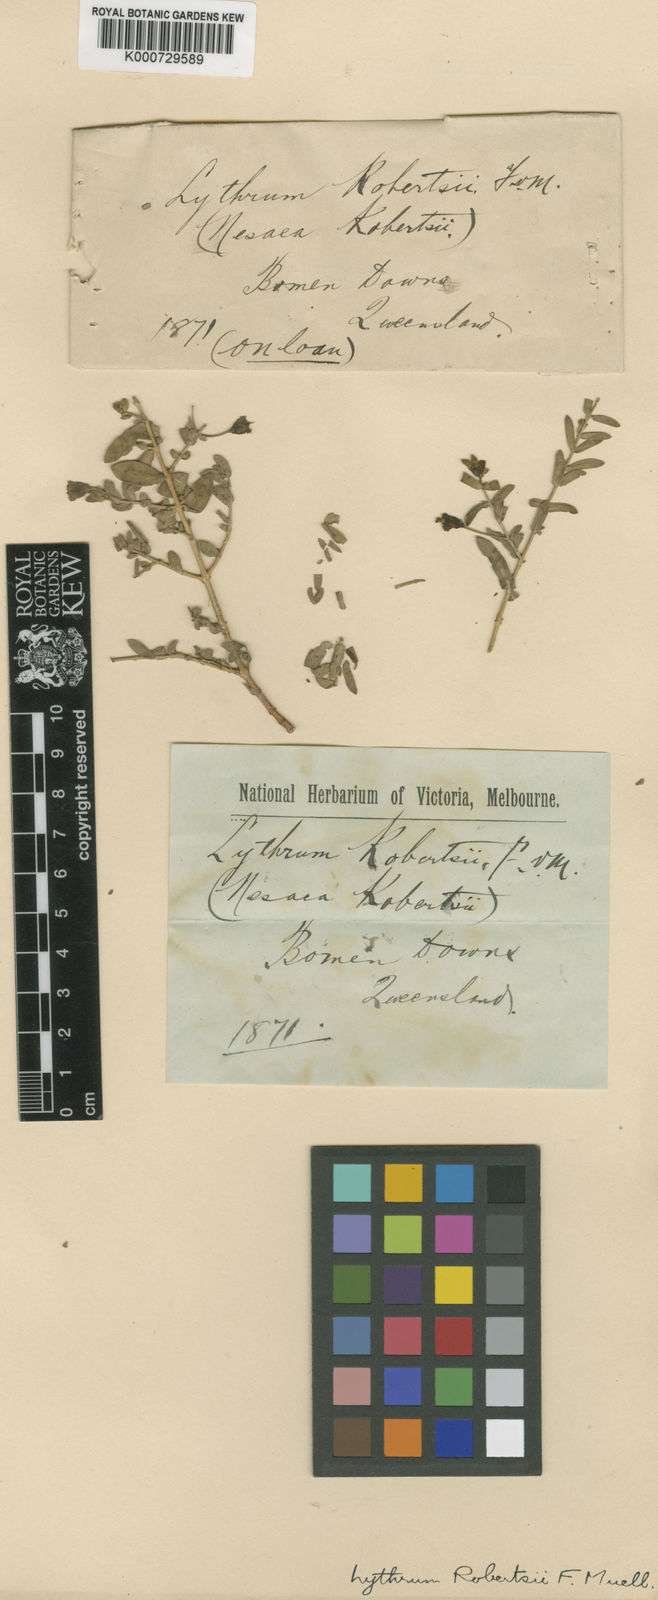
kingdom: Plantae
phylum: Tracheophyta
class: Magnoliopsida
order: Myrtales
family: Lythraceae
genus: Ammannia
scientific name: Ammannia robertsii
